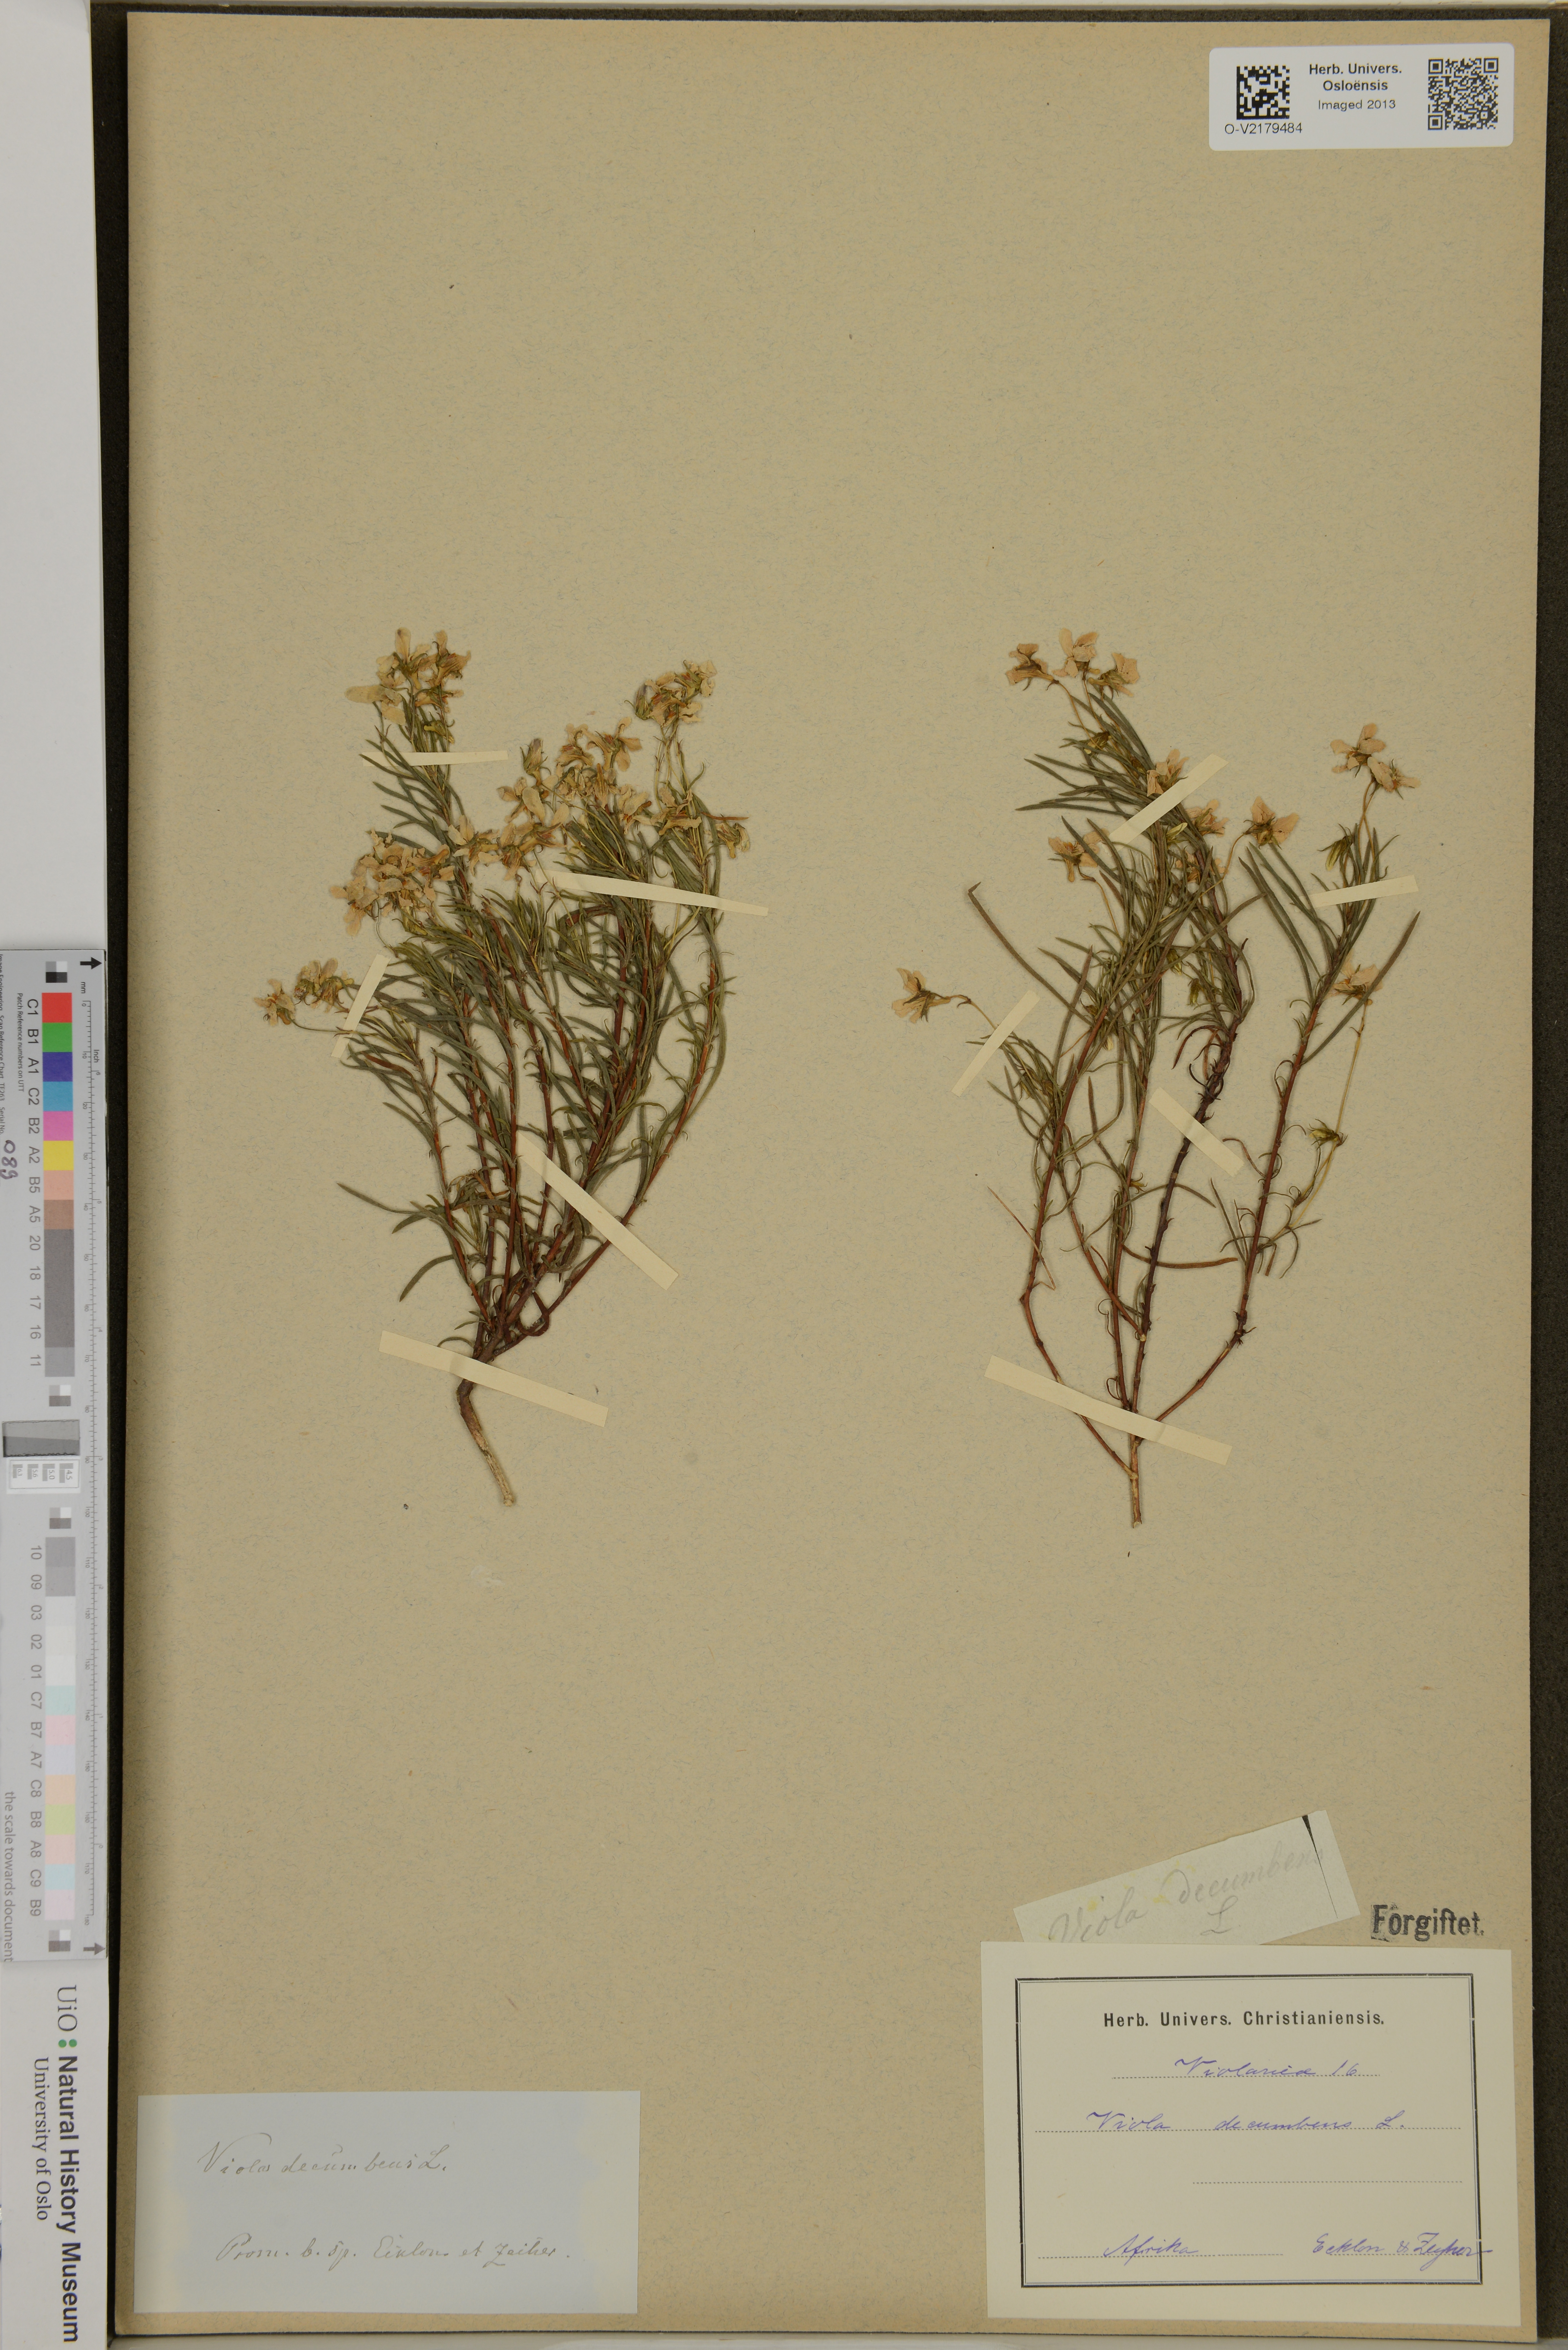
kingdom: Plantae
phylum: Tracheophyta
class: Magnoliopsida
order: Malpighiales
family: Violaceae
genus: Viola
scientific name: Viola decumbens
